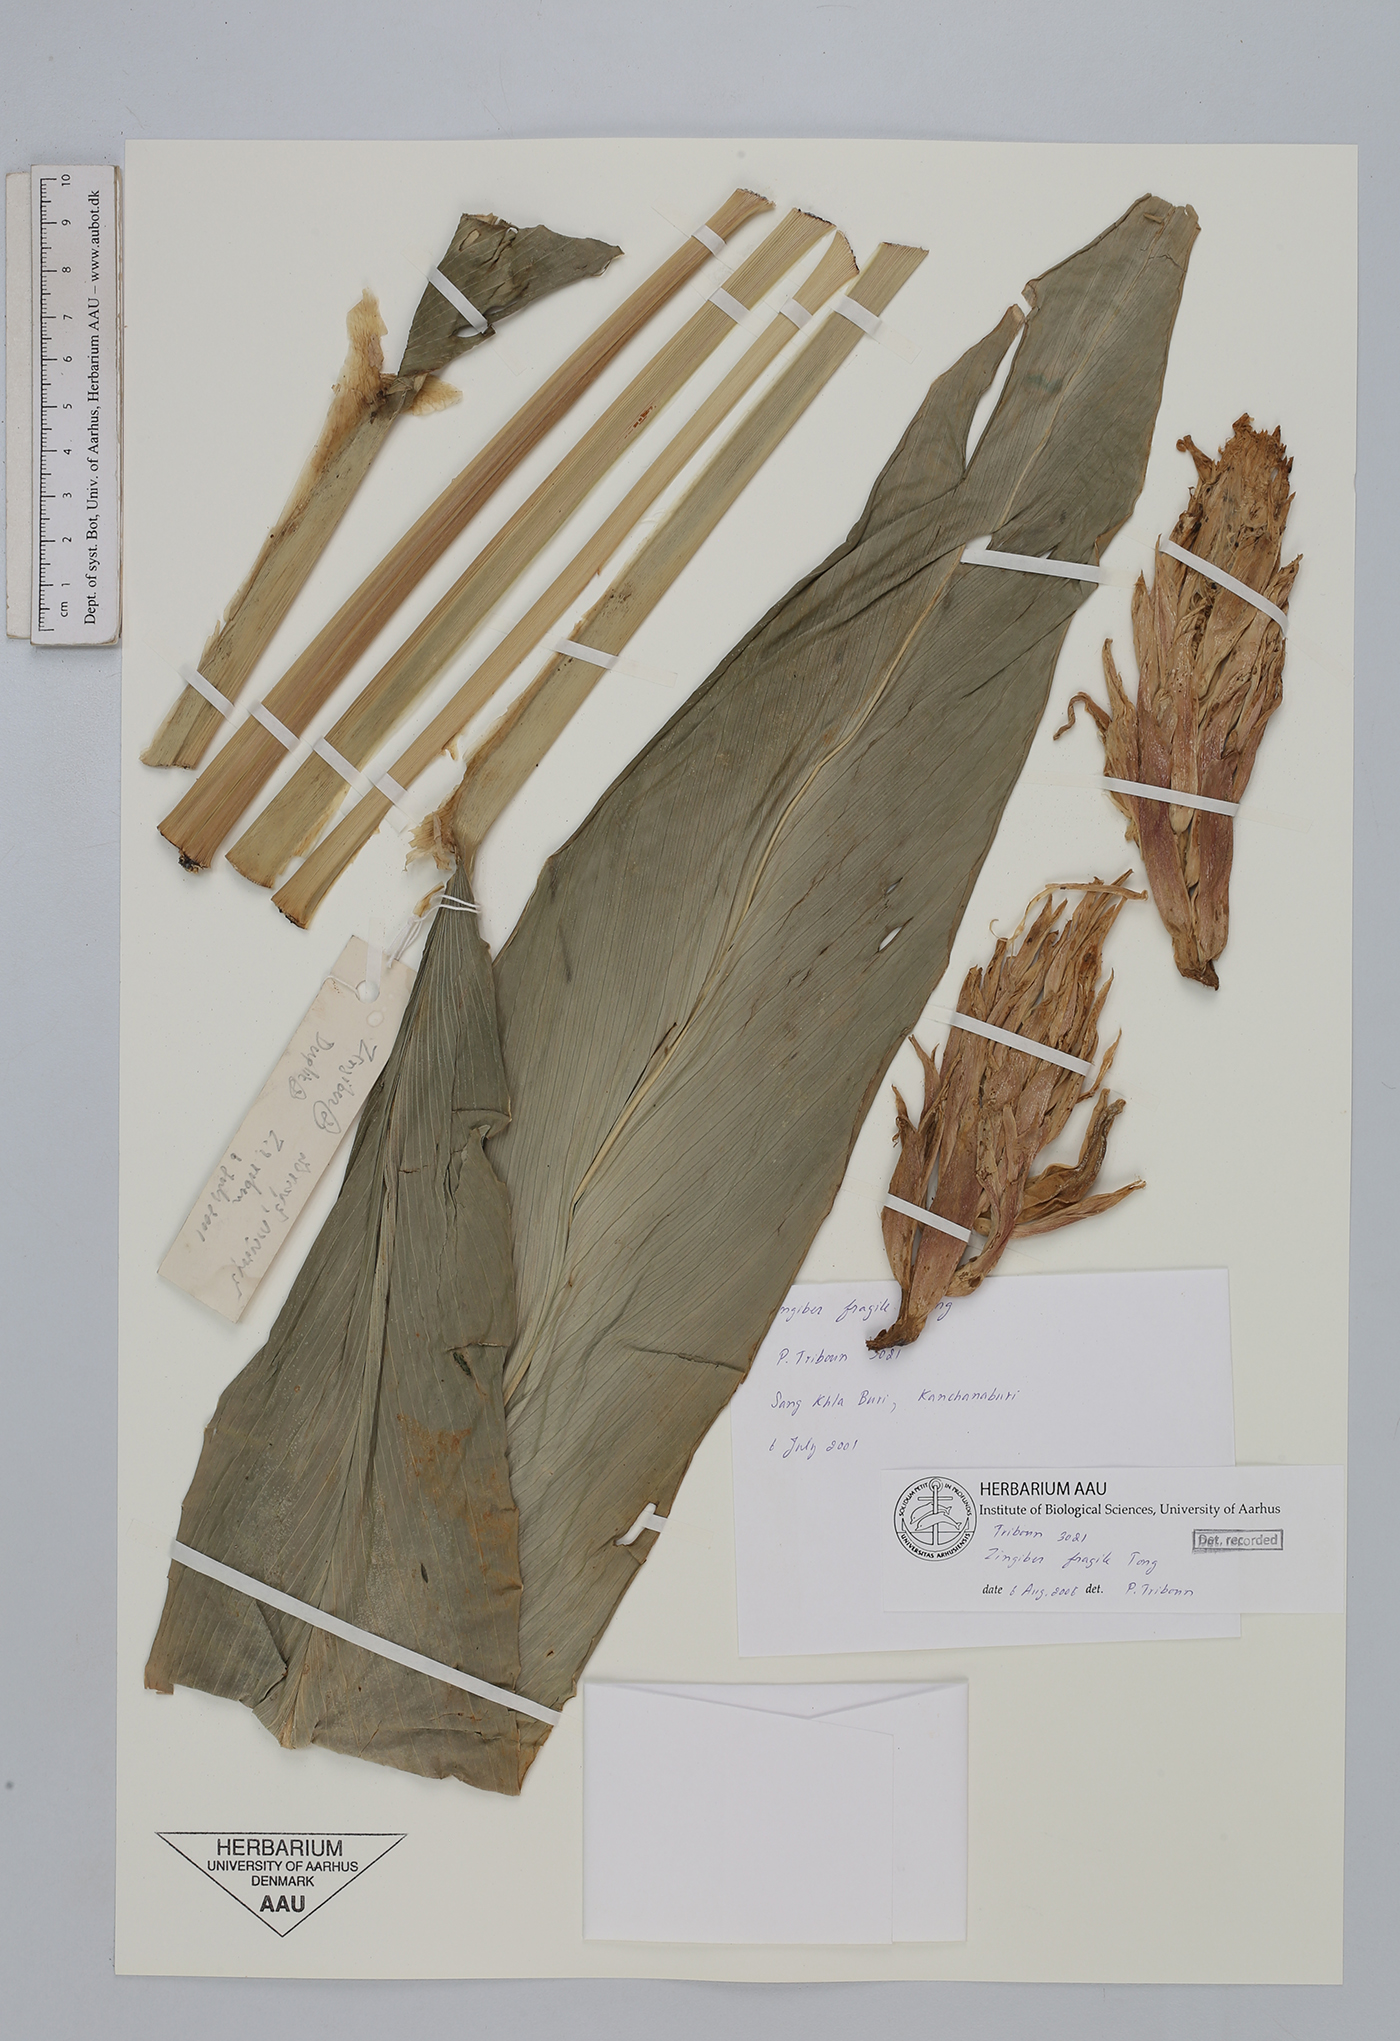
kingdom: Plantae
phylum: Tracheophyta
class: Liliopsida
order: Zingiberales
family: Zingiberaceae
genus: Zingiber
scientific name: Zingiber fragile
